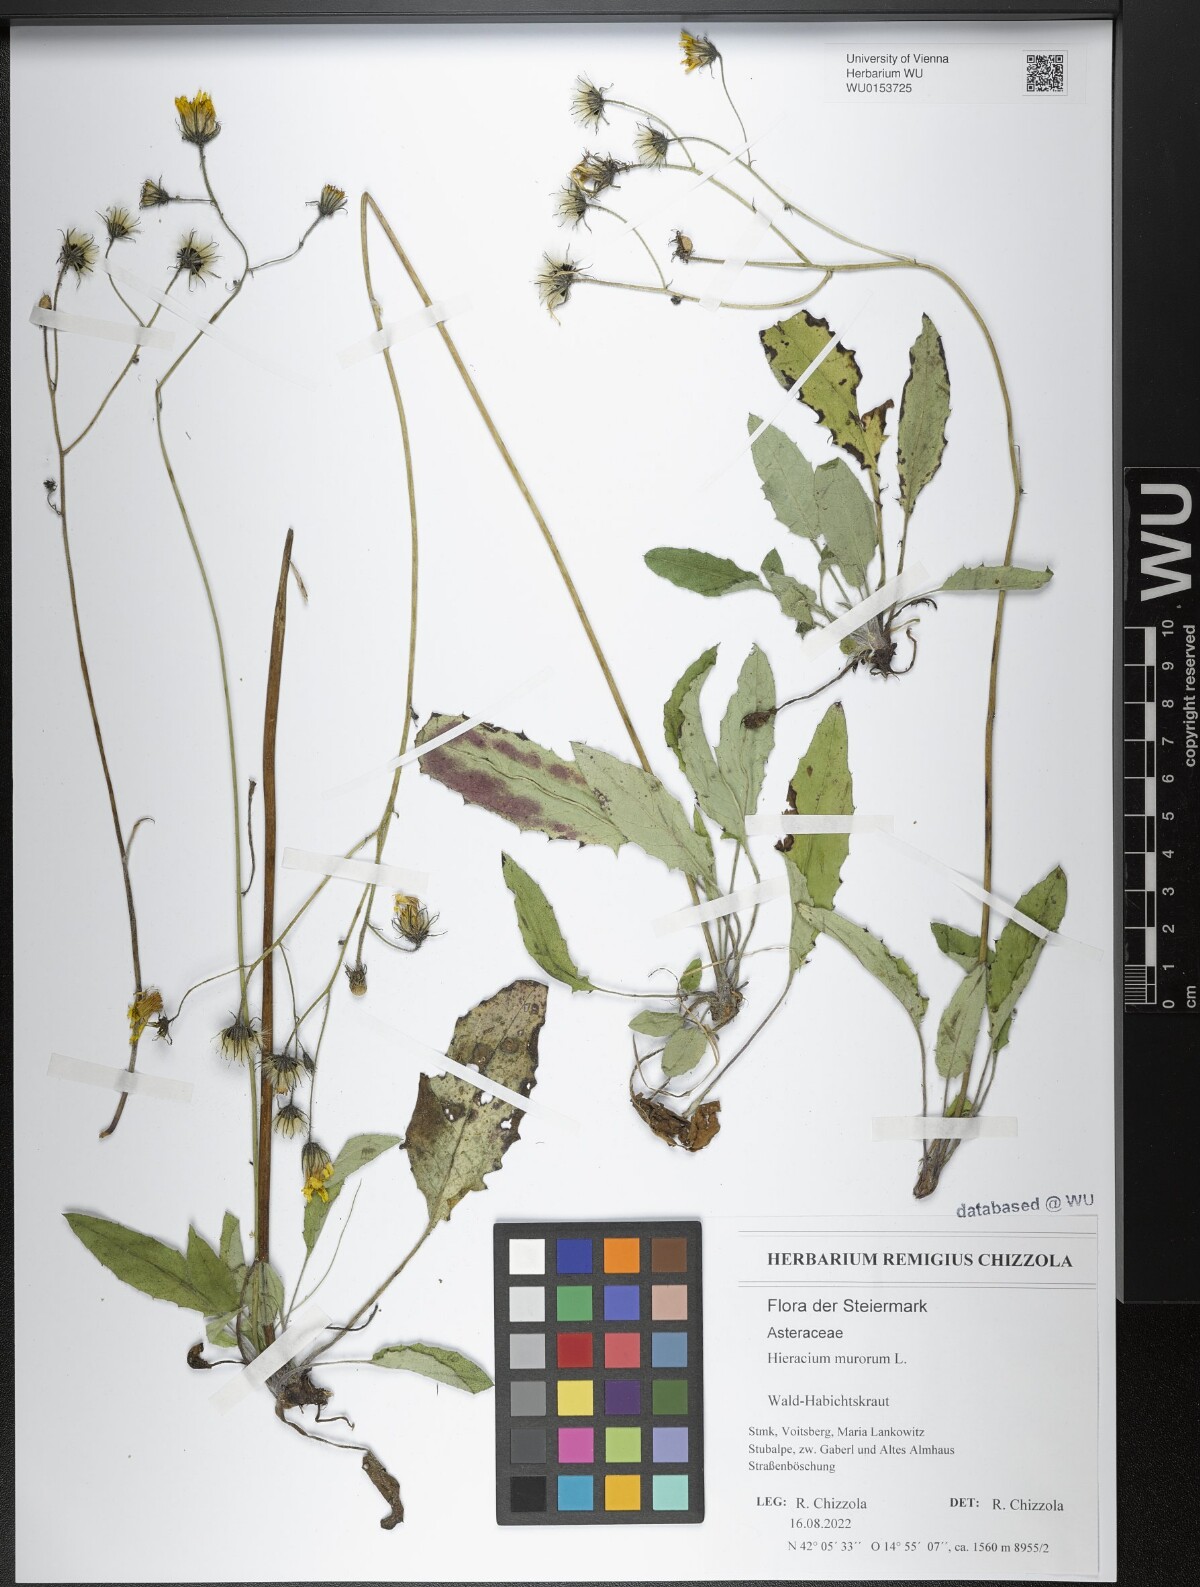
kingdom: Plantae
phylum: Tracheophyta
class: Magnoliopsida
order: Asterales
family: Asteraceae
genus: Hieracium
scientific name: Hieracium murorum
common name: Wall hawkweed
